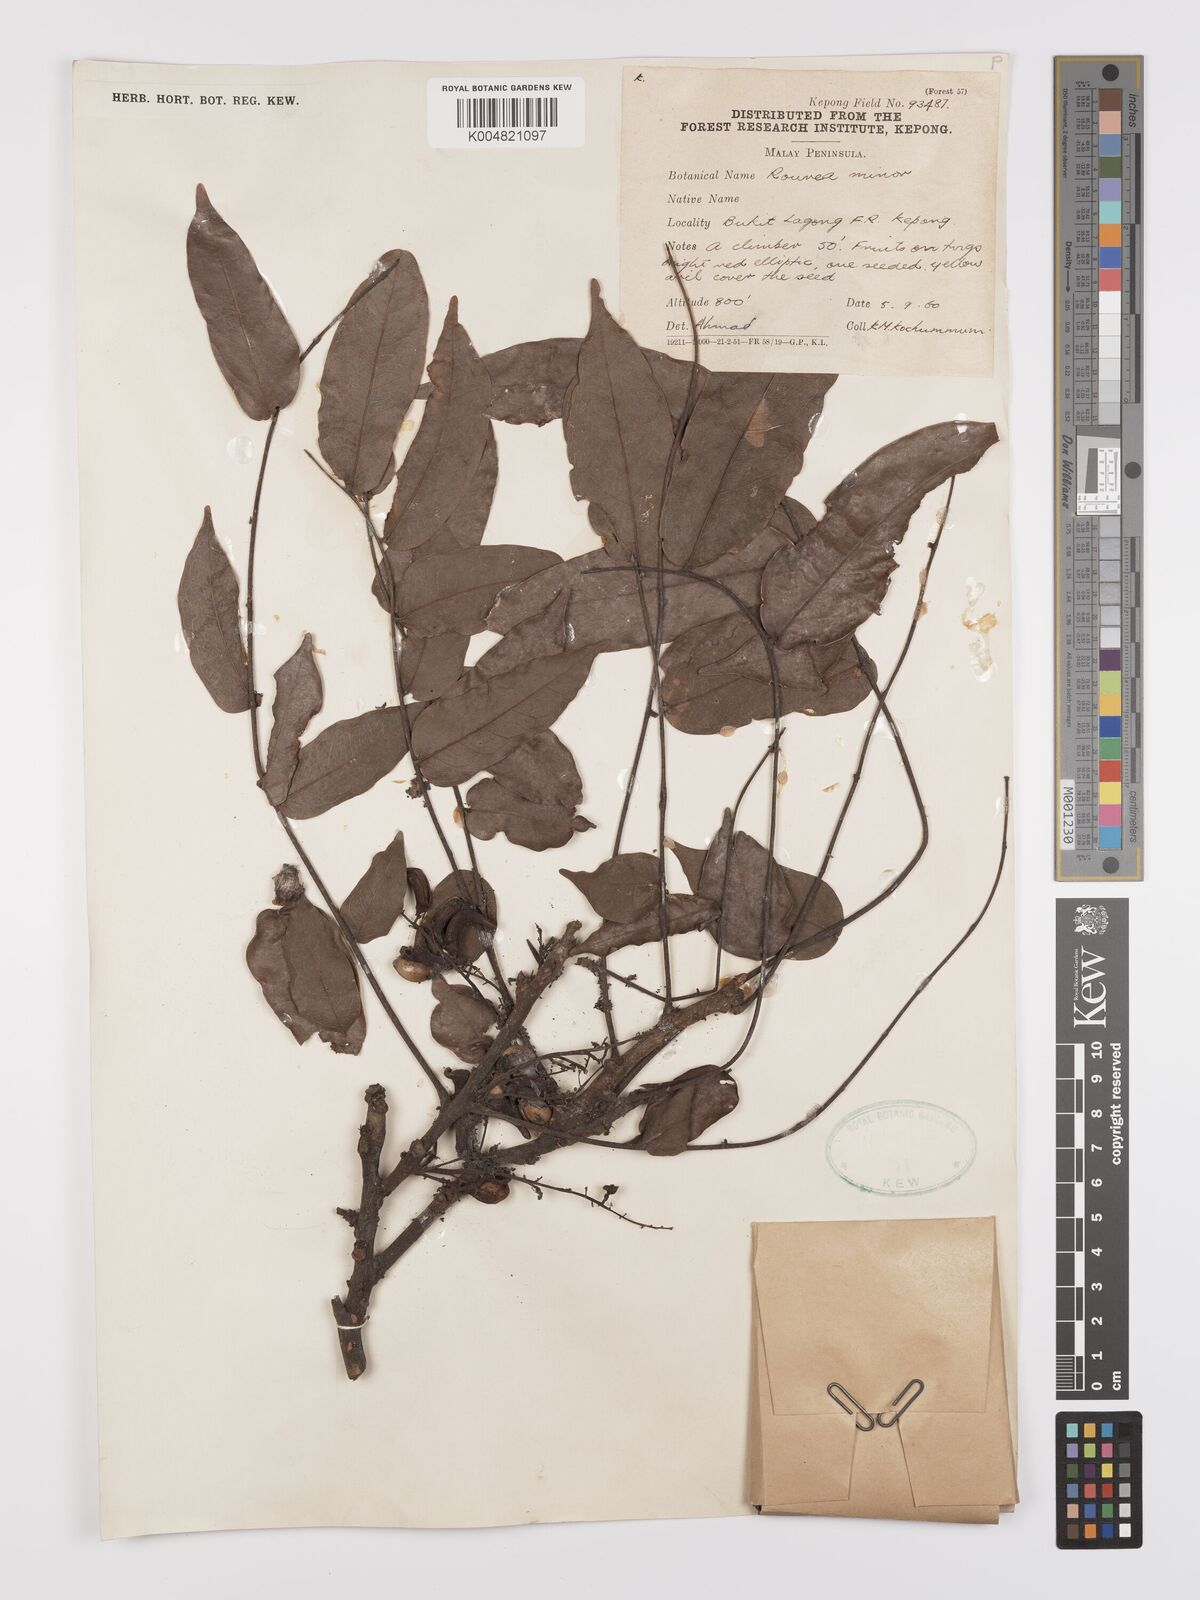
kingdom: Plantae
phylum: Tracheophyta
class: Magnoliopsida
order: Oxalidales
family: Connaraceae
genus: Rourea
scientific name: Rourea minor
